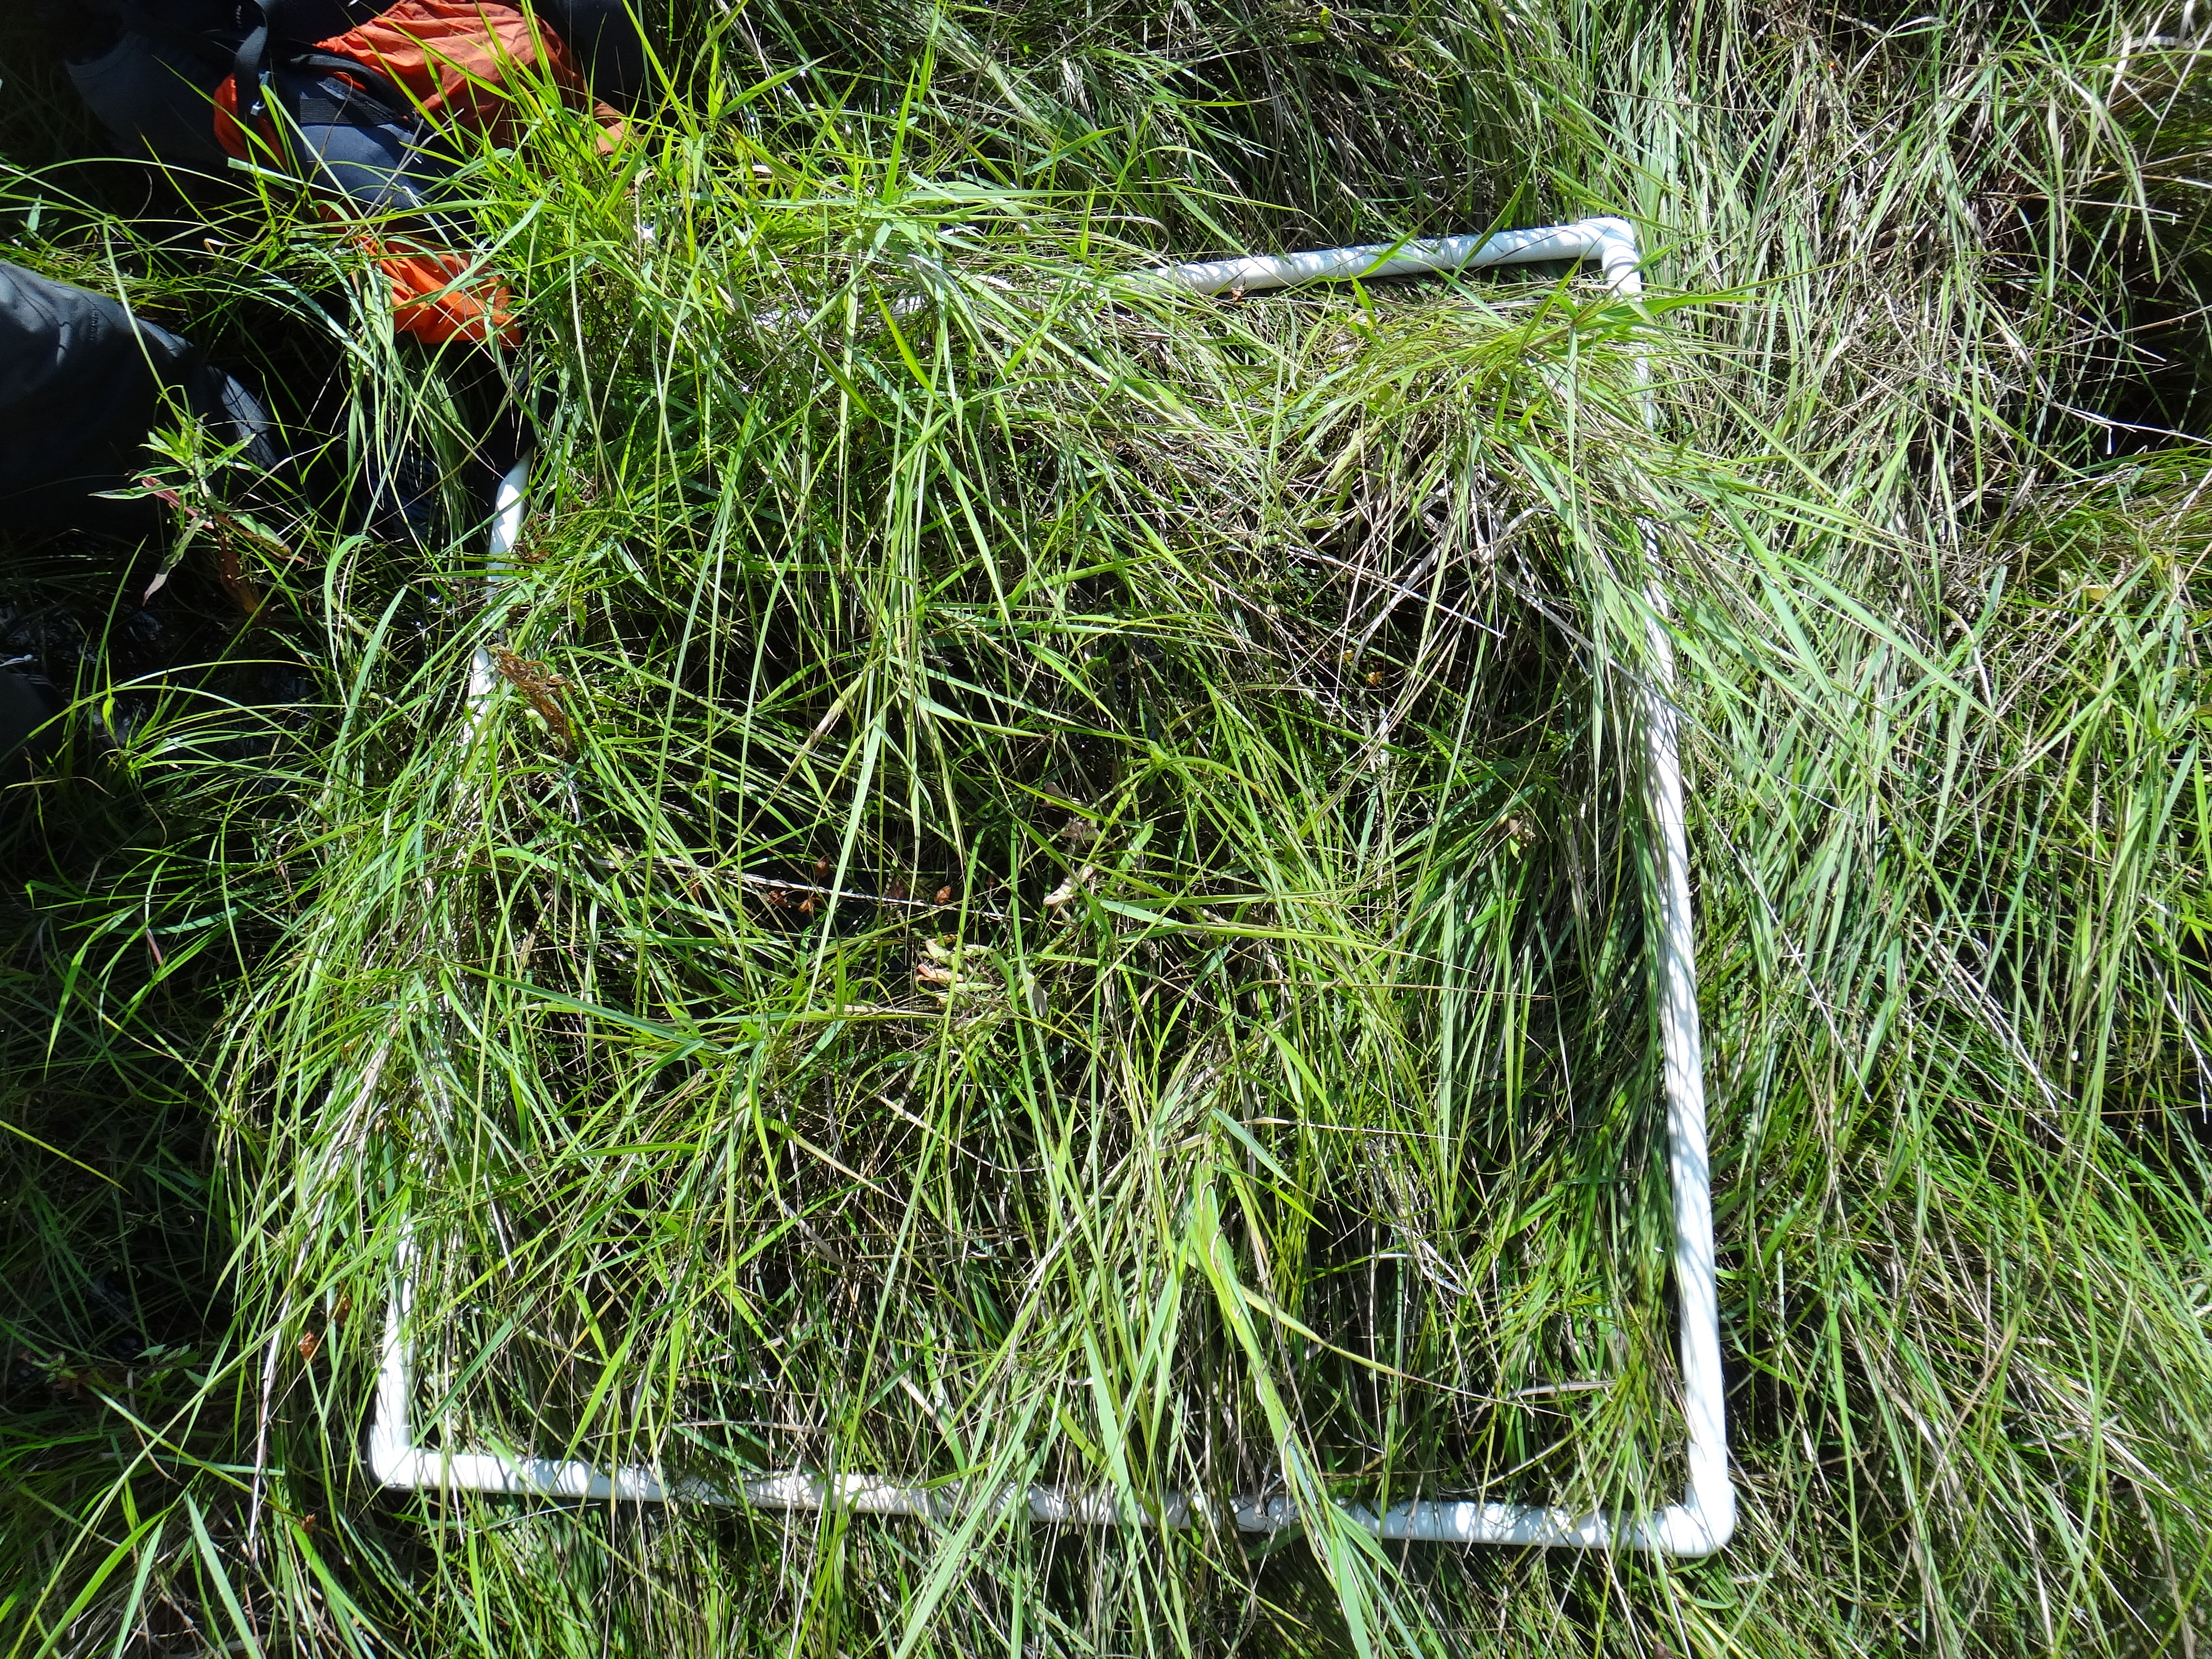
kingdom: Plantae
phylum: Tracheophyta
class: Magnoliopsida
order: Fabales
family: Fabaceae
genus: Lathyrus
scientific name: Lathyrus palustris
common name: Marsh pea
